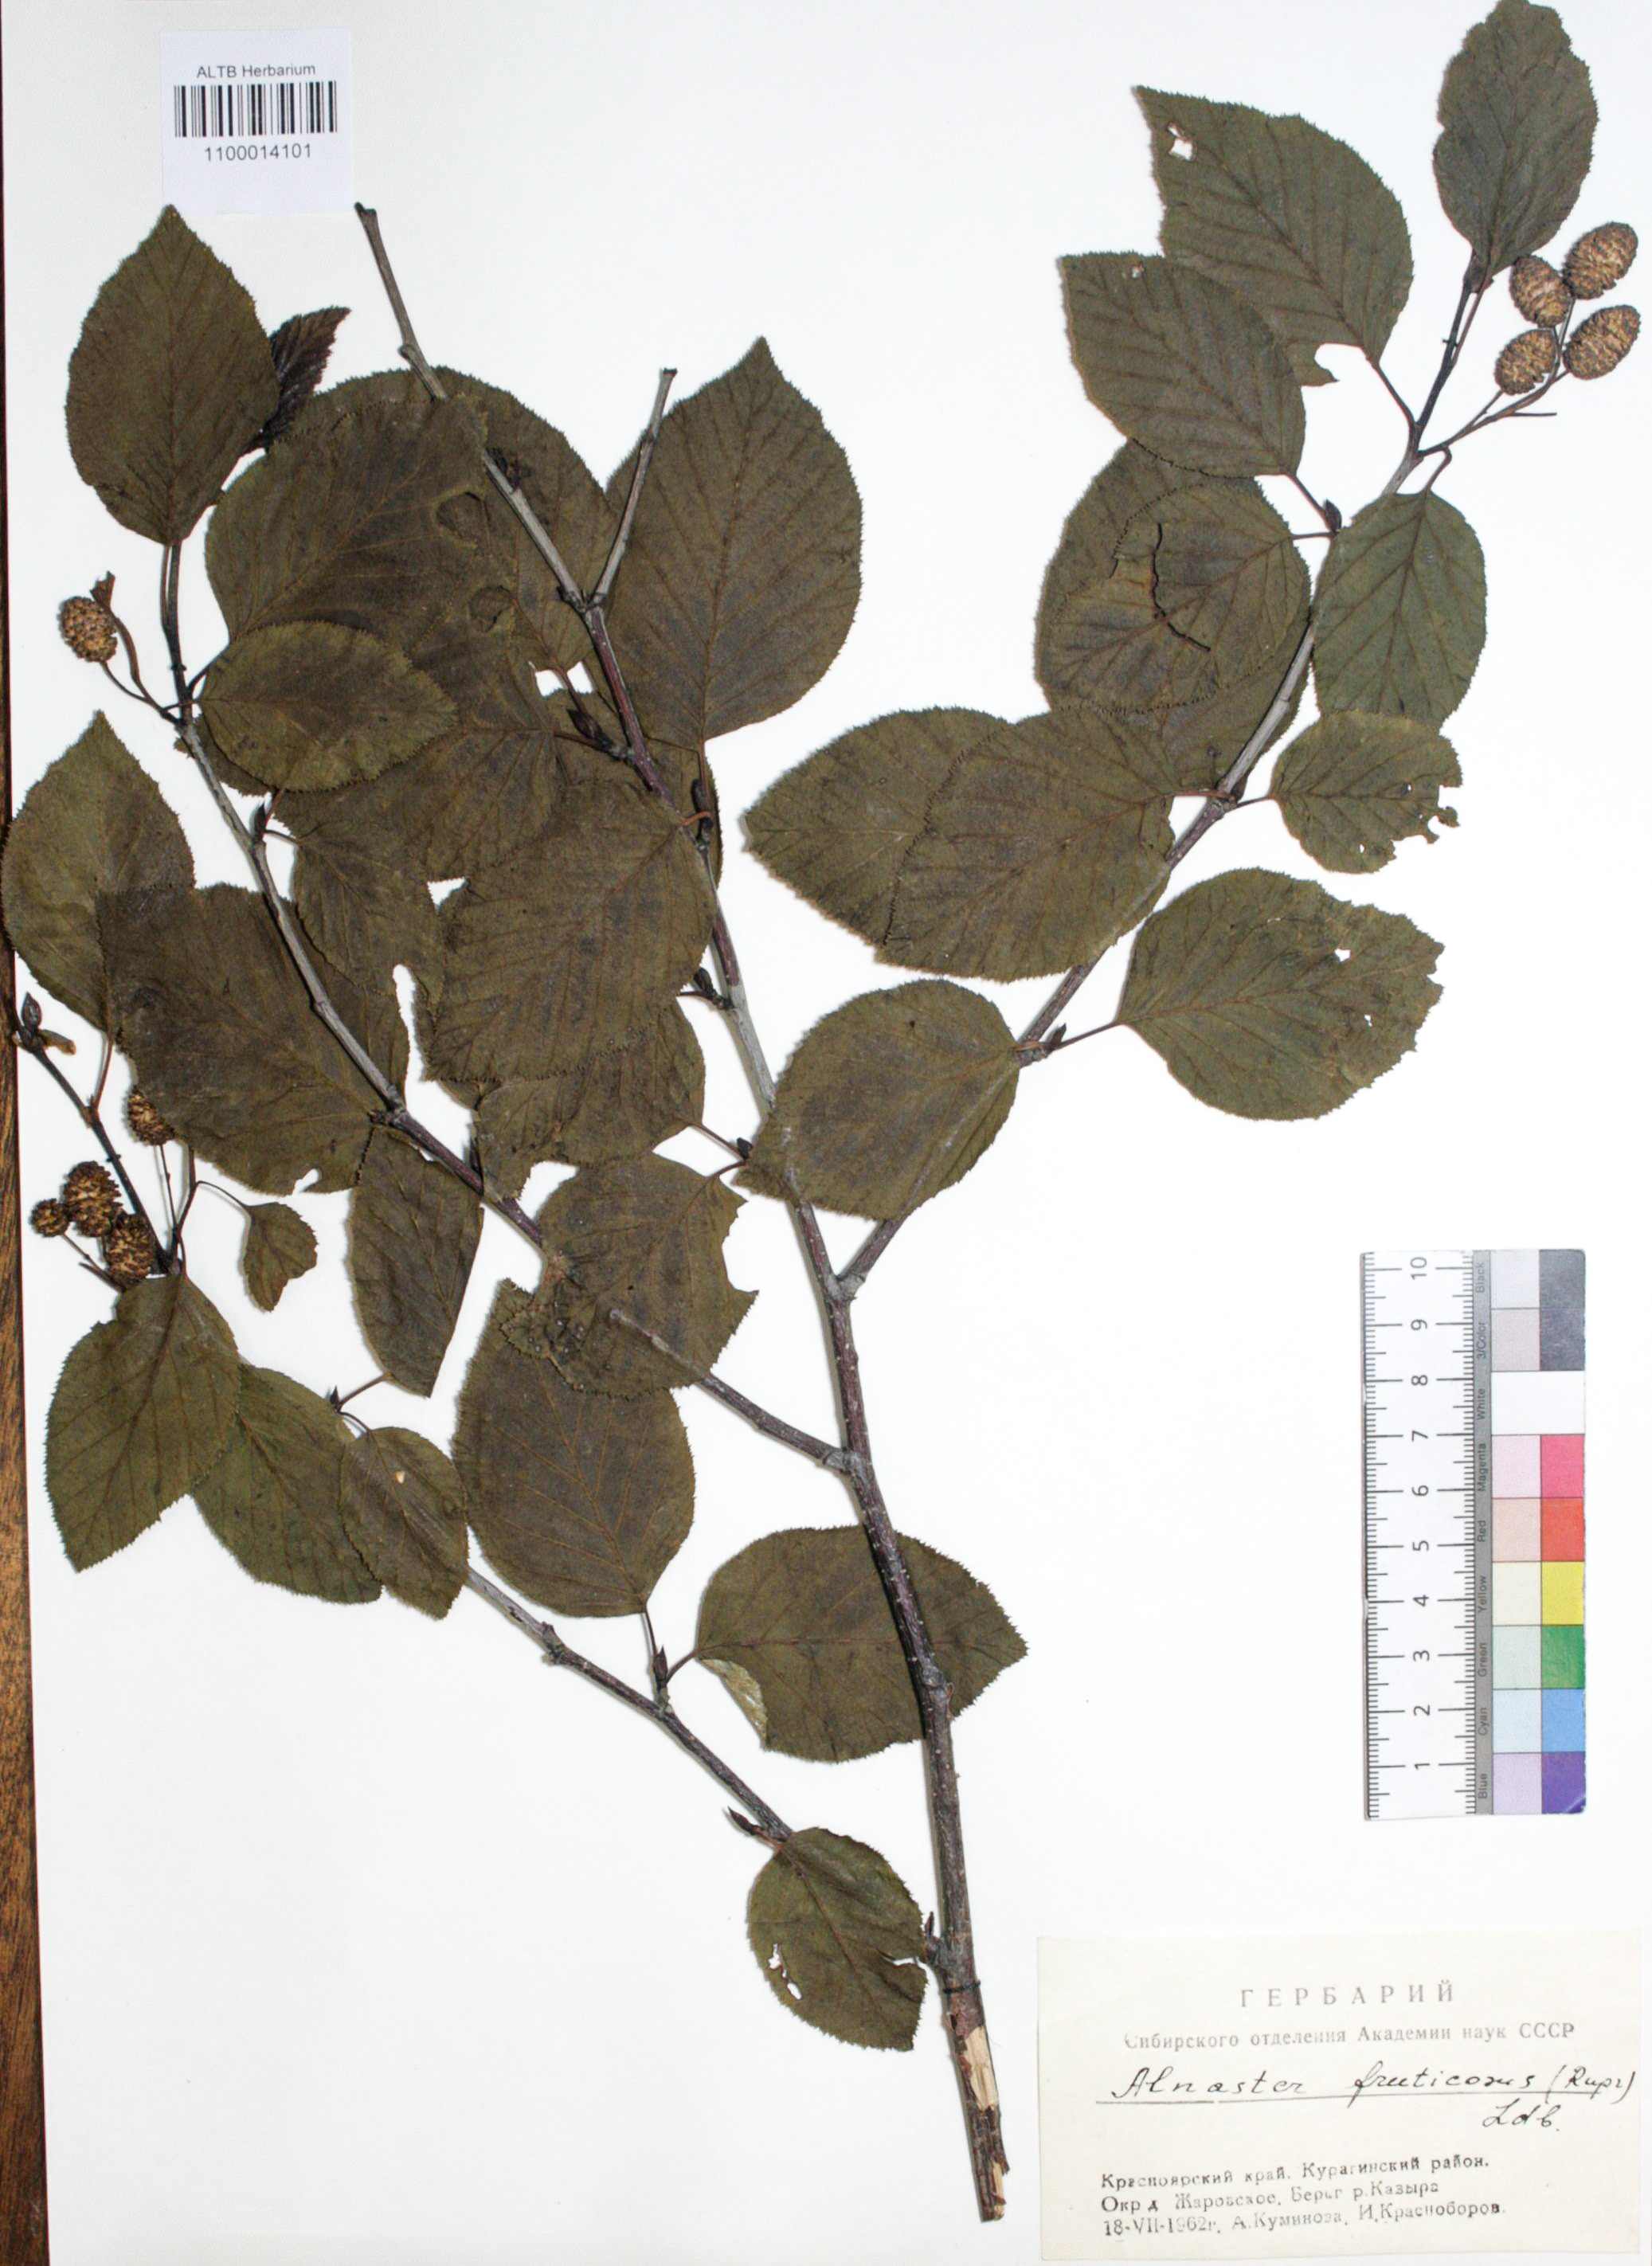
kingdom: Plantae
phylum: Tracheophyta
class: Magnoliopsida
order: Fagales
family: Betulaceae
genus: Alnus
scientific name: Alnus alnobetula
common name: Green alder
